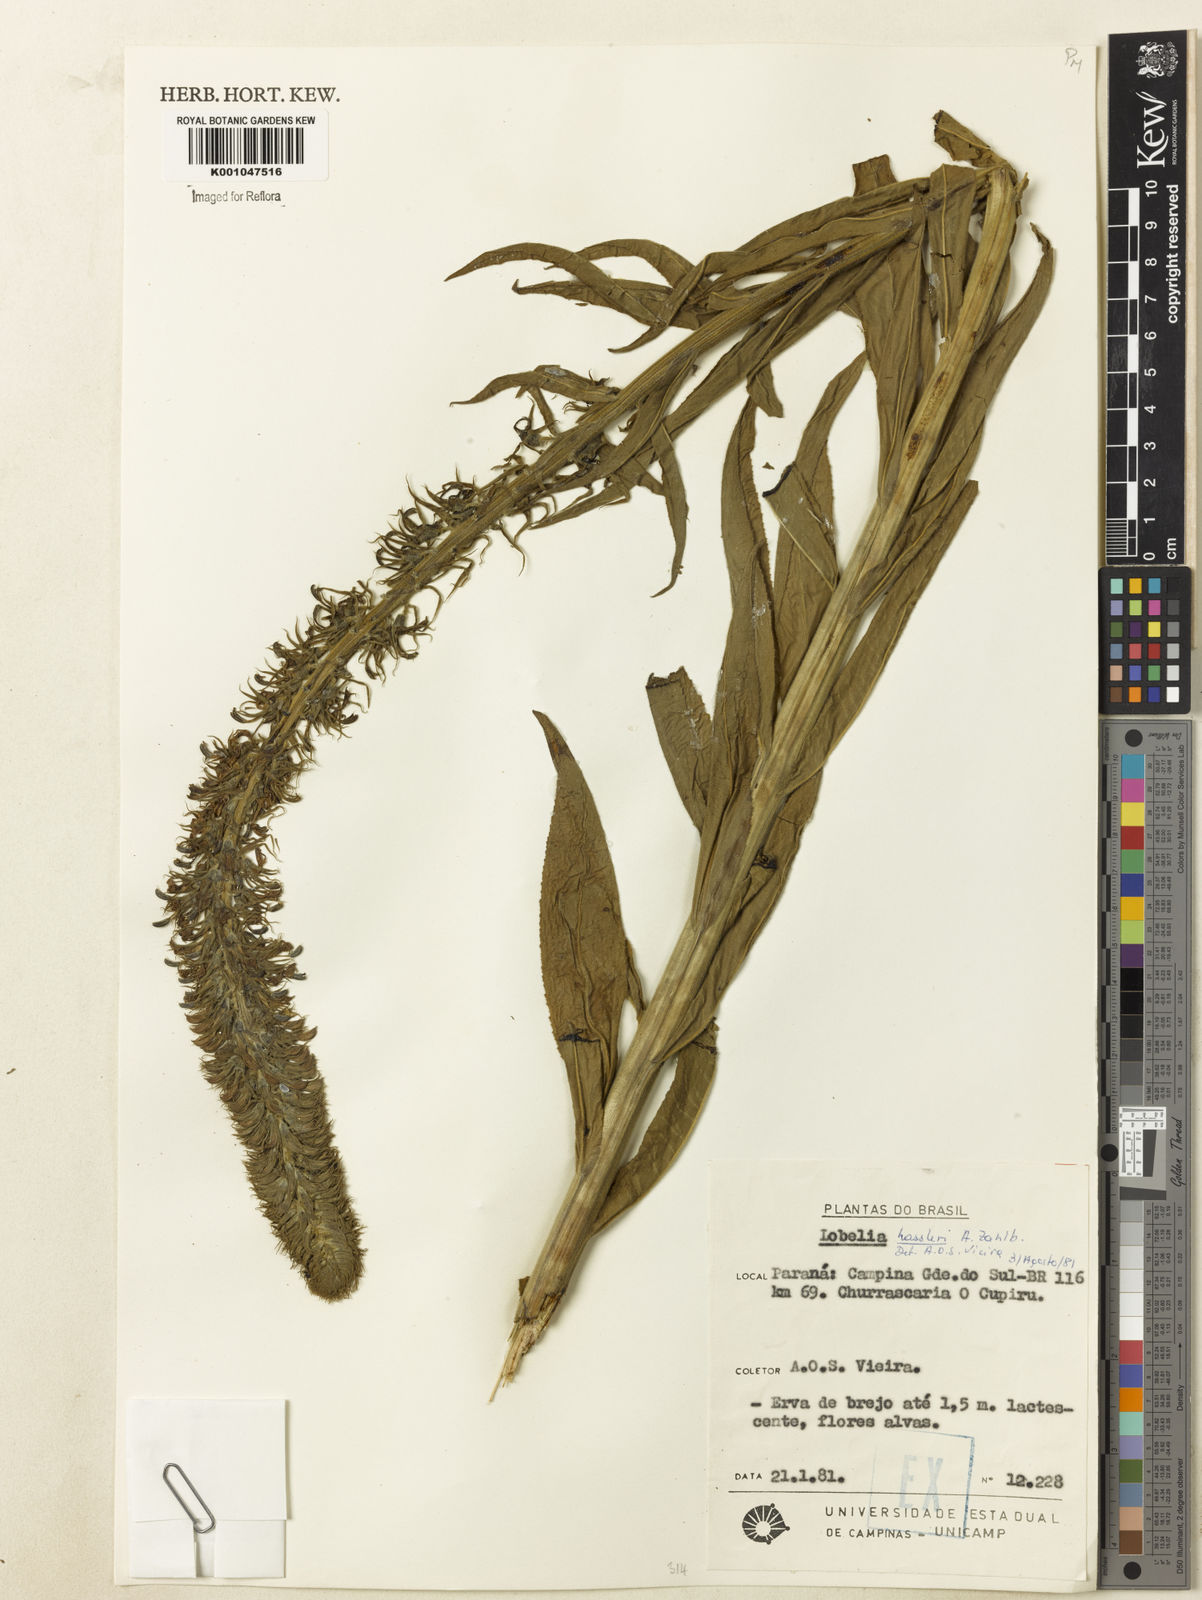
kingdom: Plantae
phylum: Tracheophyta
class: Magnoliopsida
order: Asterales
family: Campanulaceae
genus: Lobelia
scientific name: Lobelia hassleri
